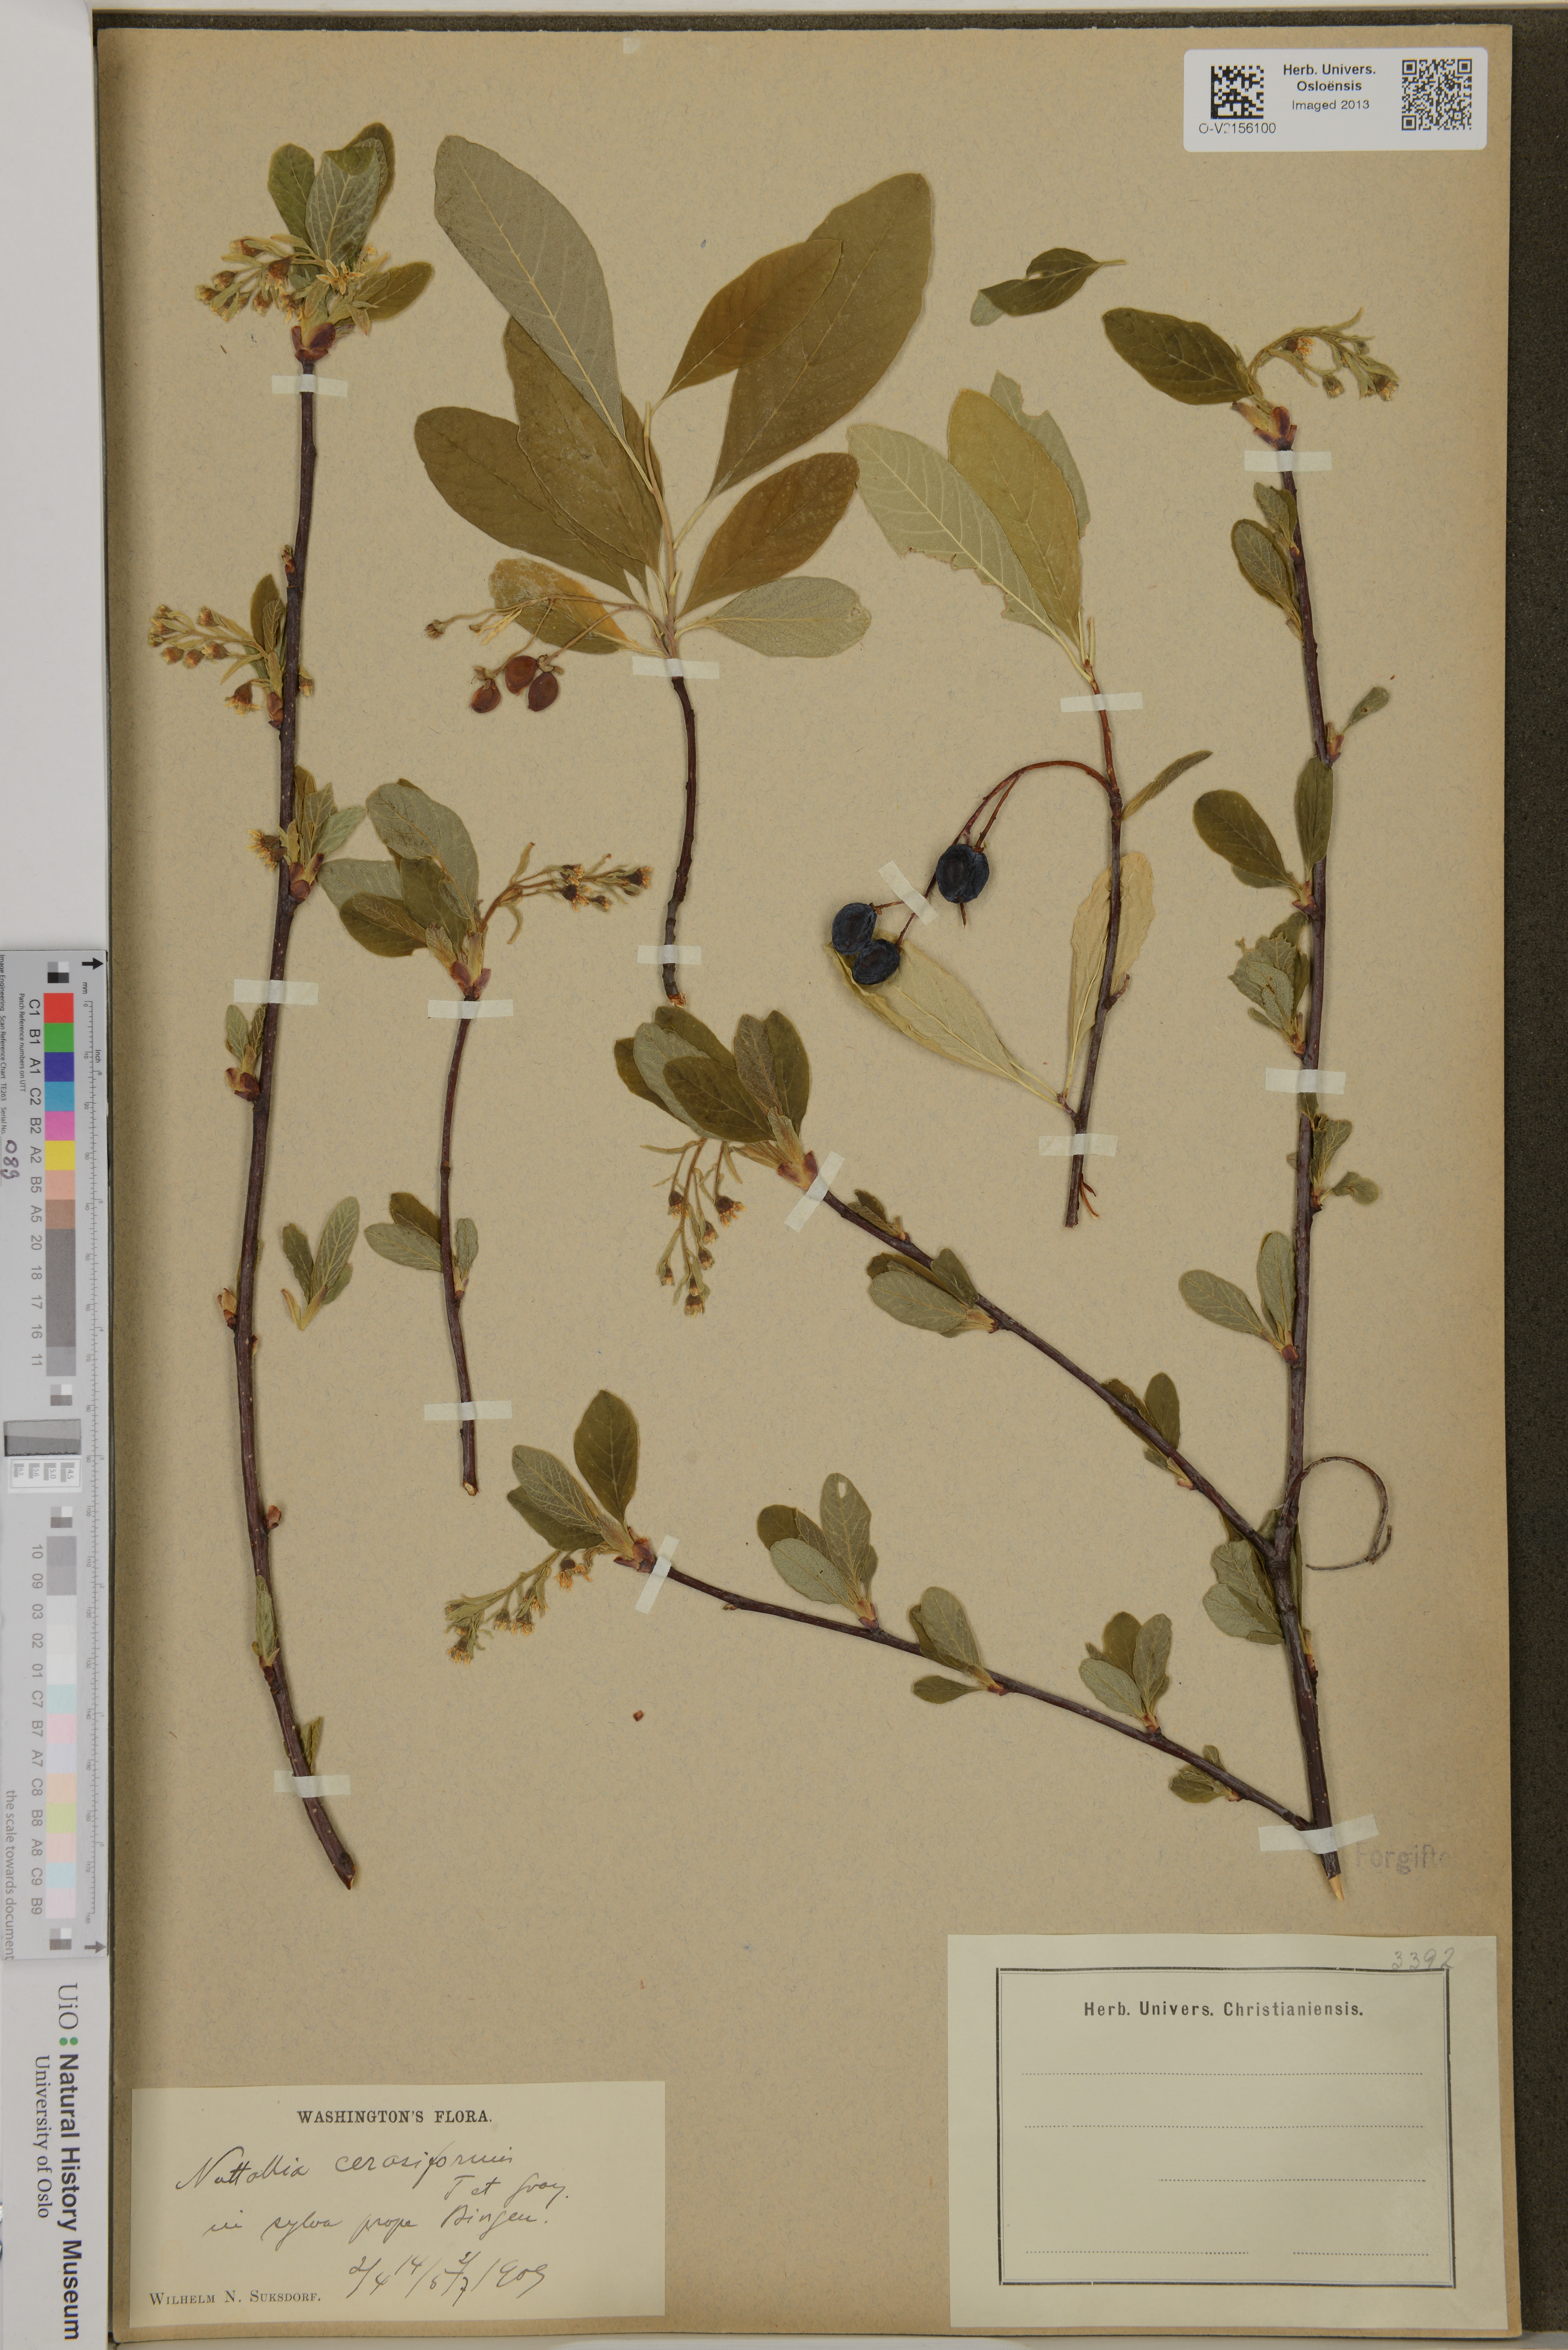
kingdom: Plantae
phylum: Tracheophyta
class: Magnoliopsida
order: Rosales
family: Rosaceae
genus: Oemleria
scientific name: Oemleria cerasiformis
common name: Osoberry
